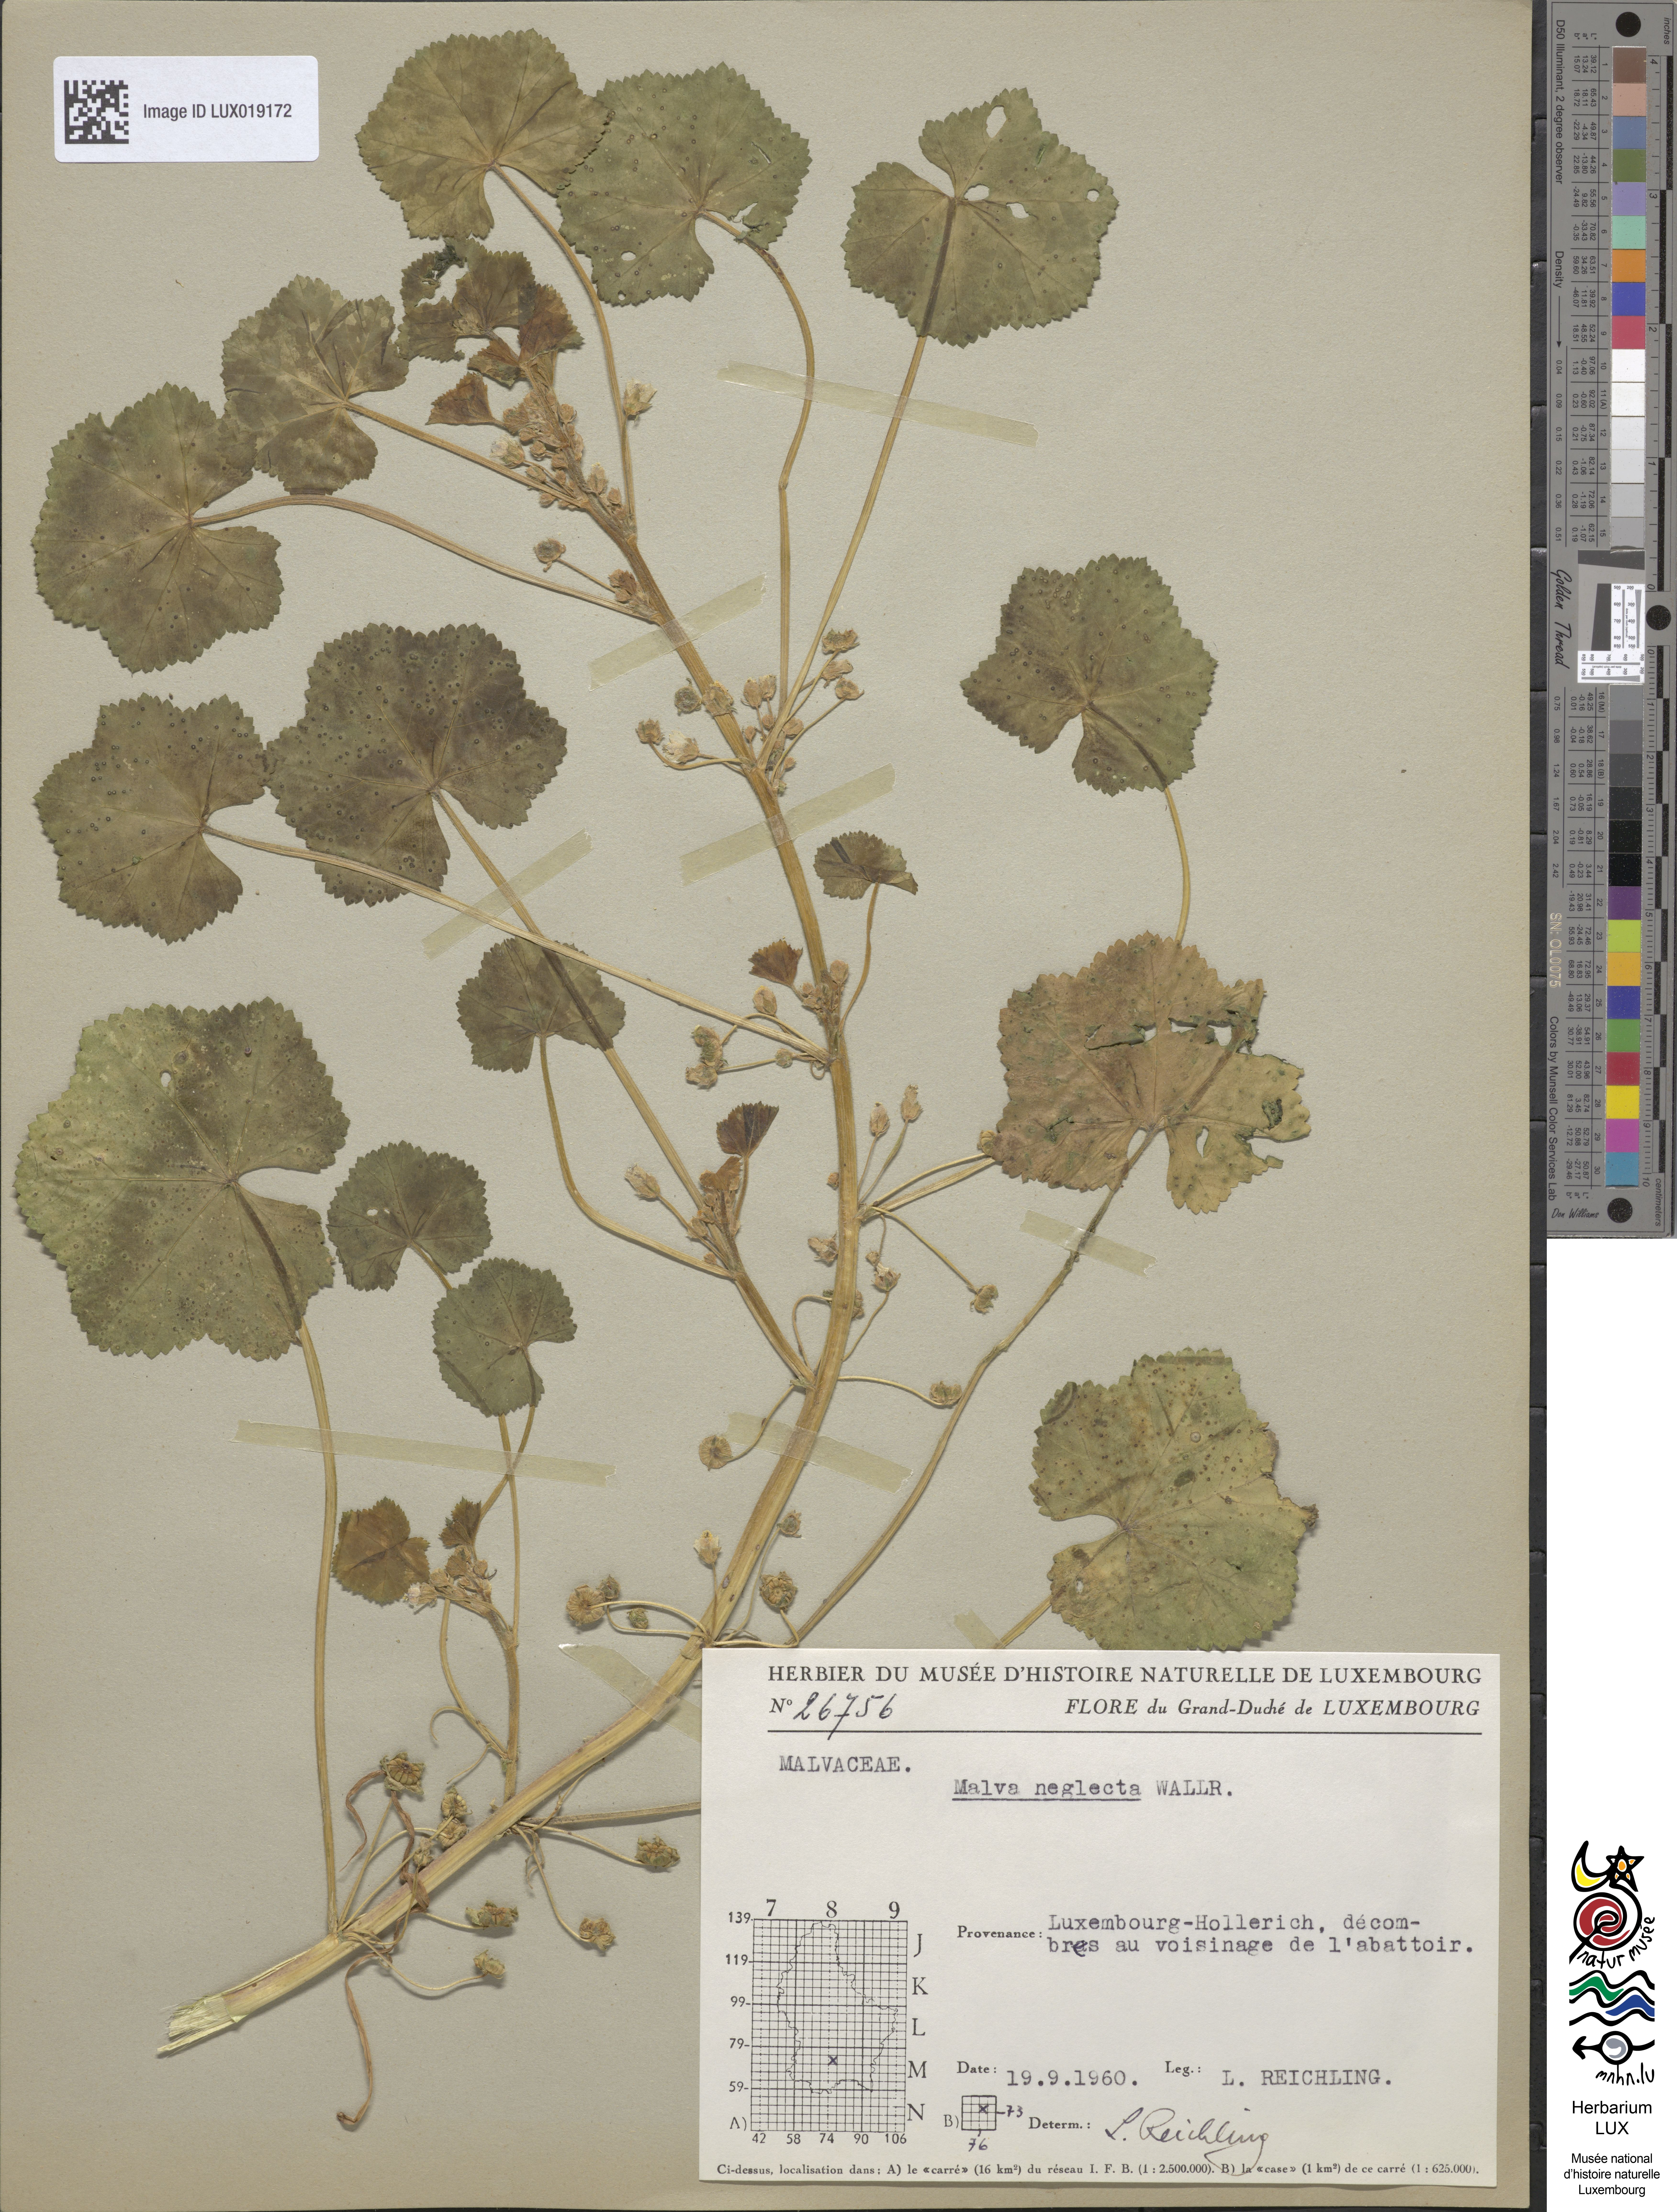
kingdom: Plantae
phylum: Tracheophyta
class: Magnoliopsida
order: Malvales
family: Malvaceae
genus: Malva
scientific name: Malva neglecta
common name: Common mallow
